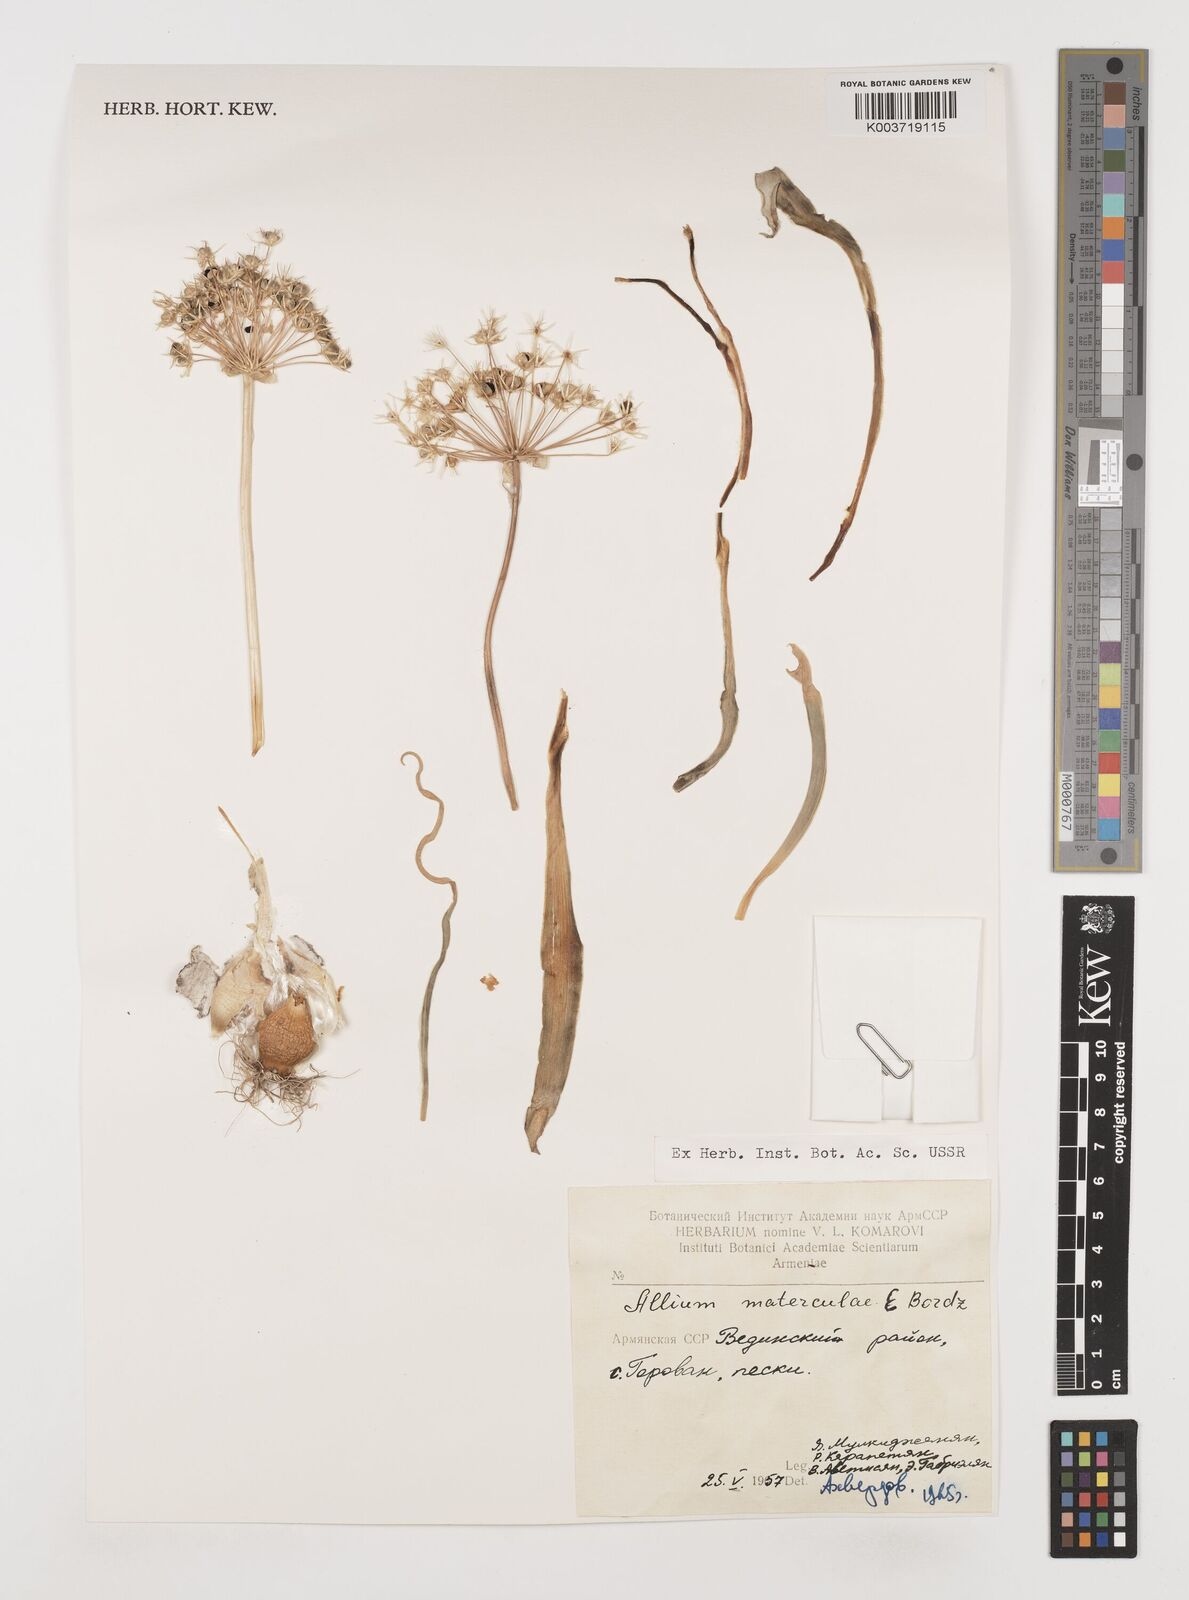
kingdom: Plantae
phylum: Tracheophyta
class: Liliopsida
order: Asparagales
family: Amaryllidaceae
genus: Allium
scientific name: Allium noeanum
